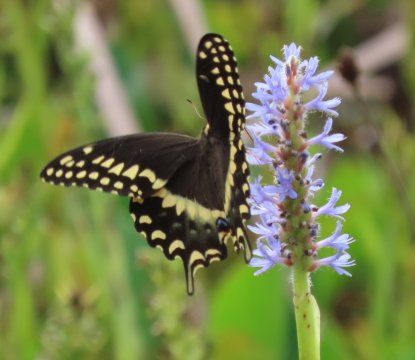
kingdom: Animalia
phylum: Arthropoda
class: Insecta
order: Lepidoptera
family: Papilionidae
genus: Pterourus
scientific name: Pterourus palamedes
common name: Palamedes Swallowtail
